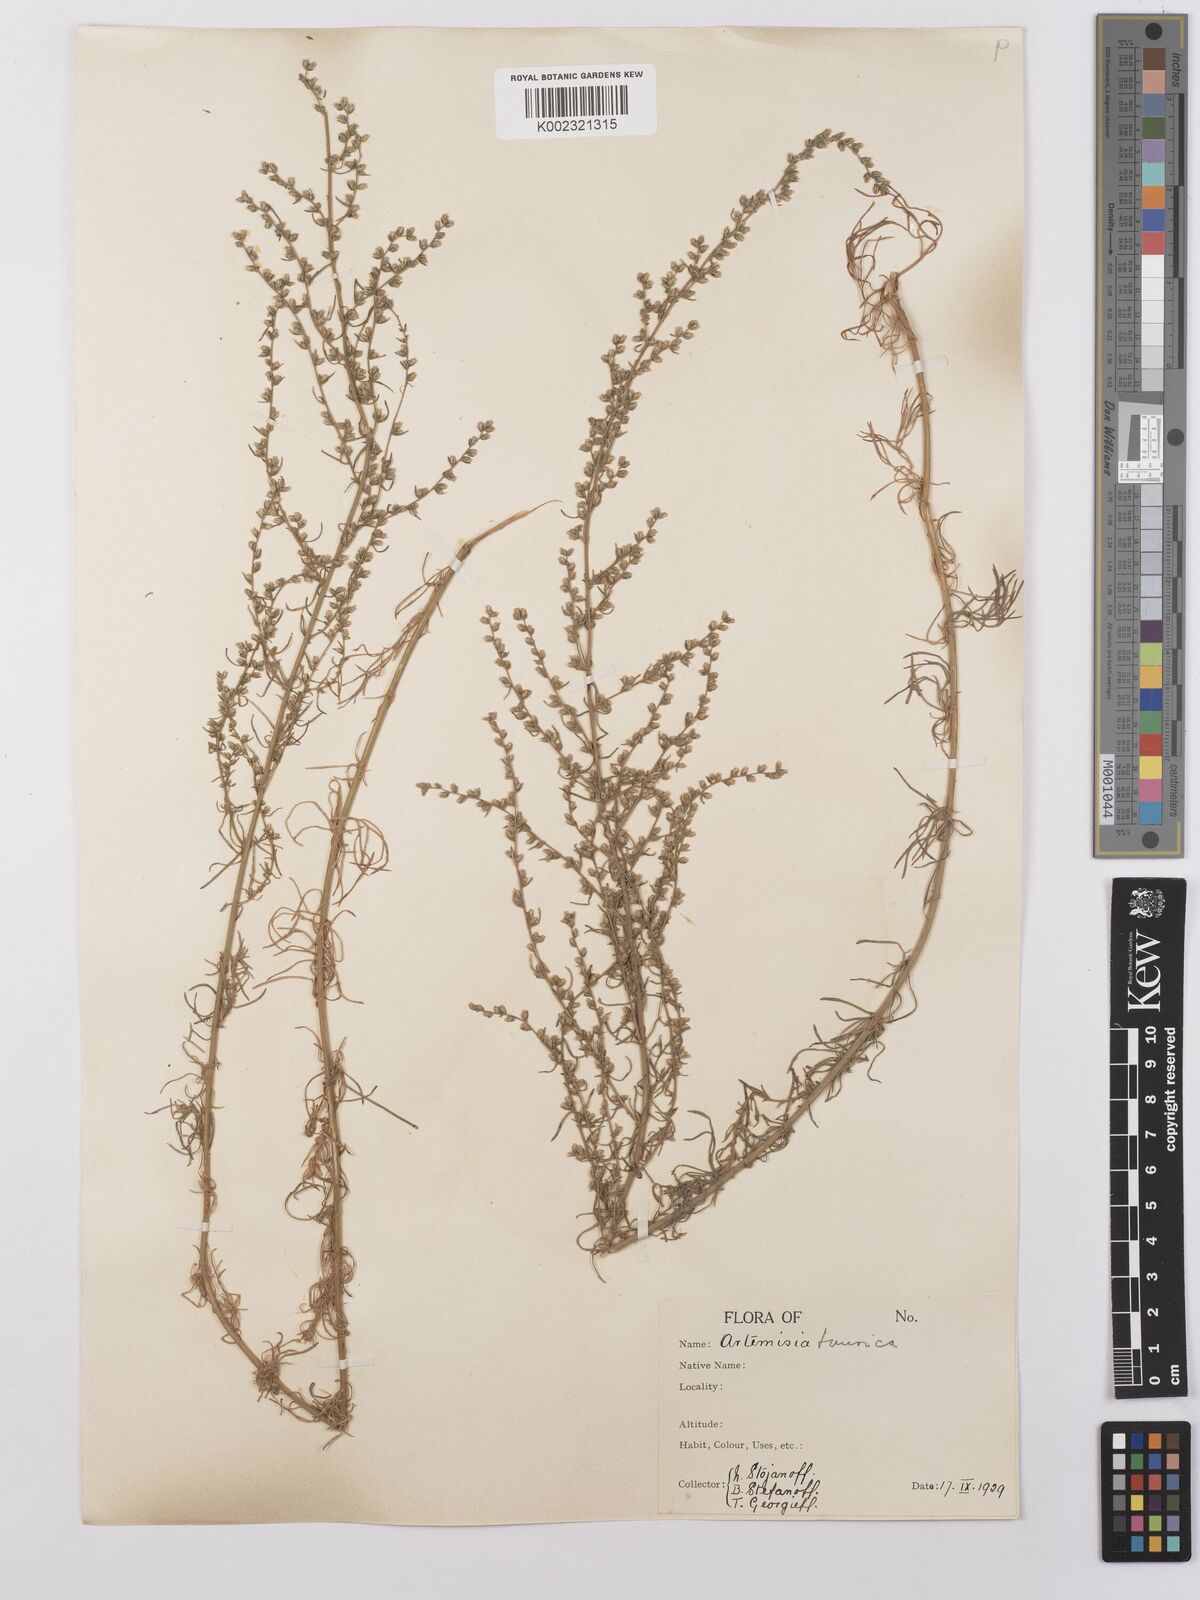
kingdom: Plantae
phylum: Tracheophyta
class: Magnoliopsida
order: Asterales
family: Asteraceae
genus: Artemisia
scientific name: Artemisia taurica
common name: Tauric wormwood
